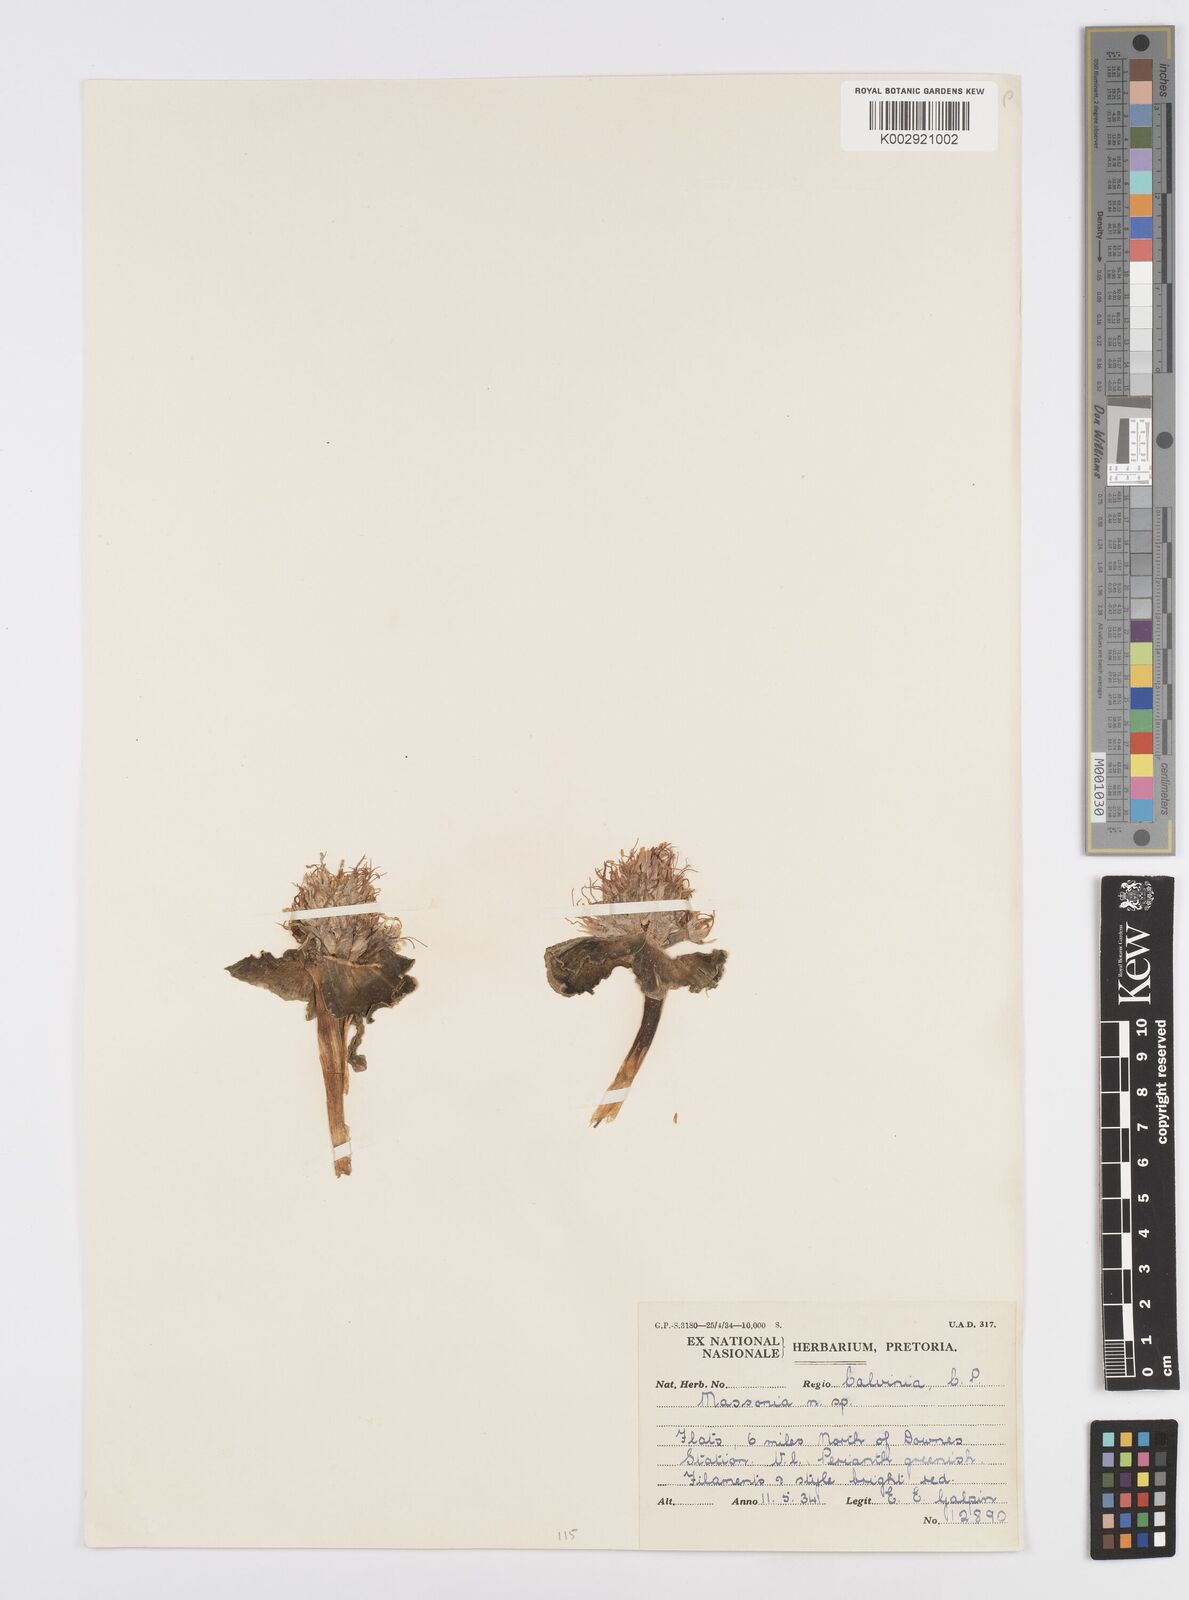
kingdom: Plantae
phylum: Tracheophyta
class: Liliopsida
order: Asparagales
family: Asparagaceae
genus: Massonia
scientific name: Massonia
